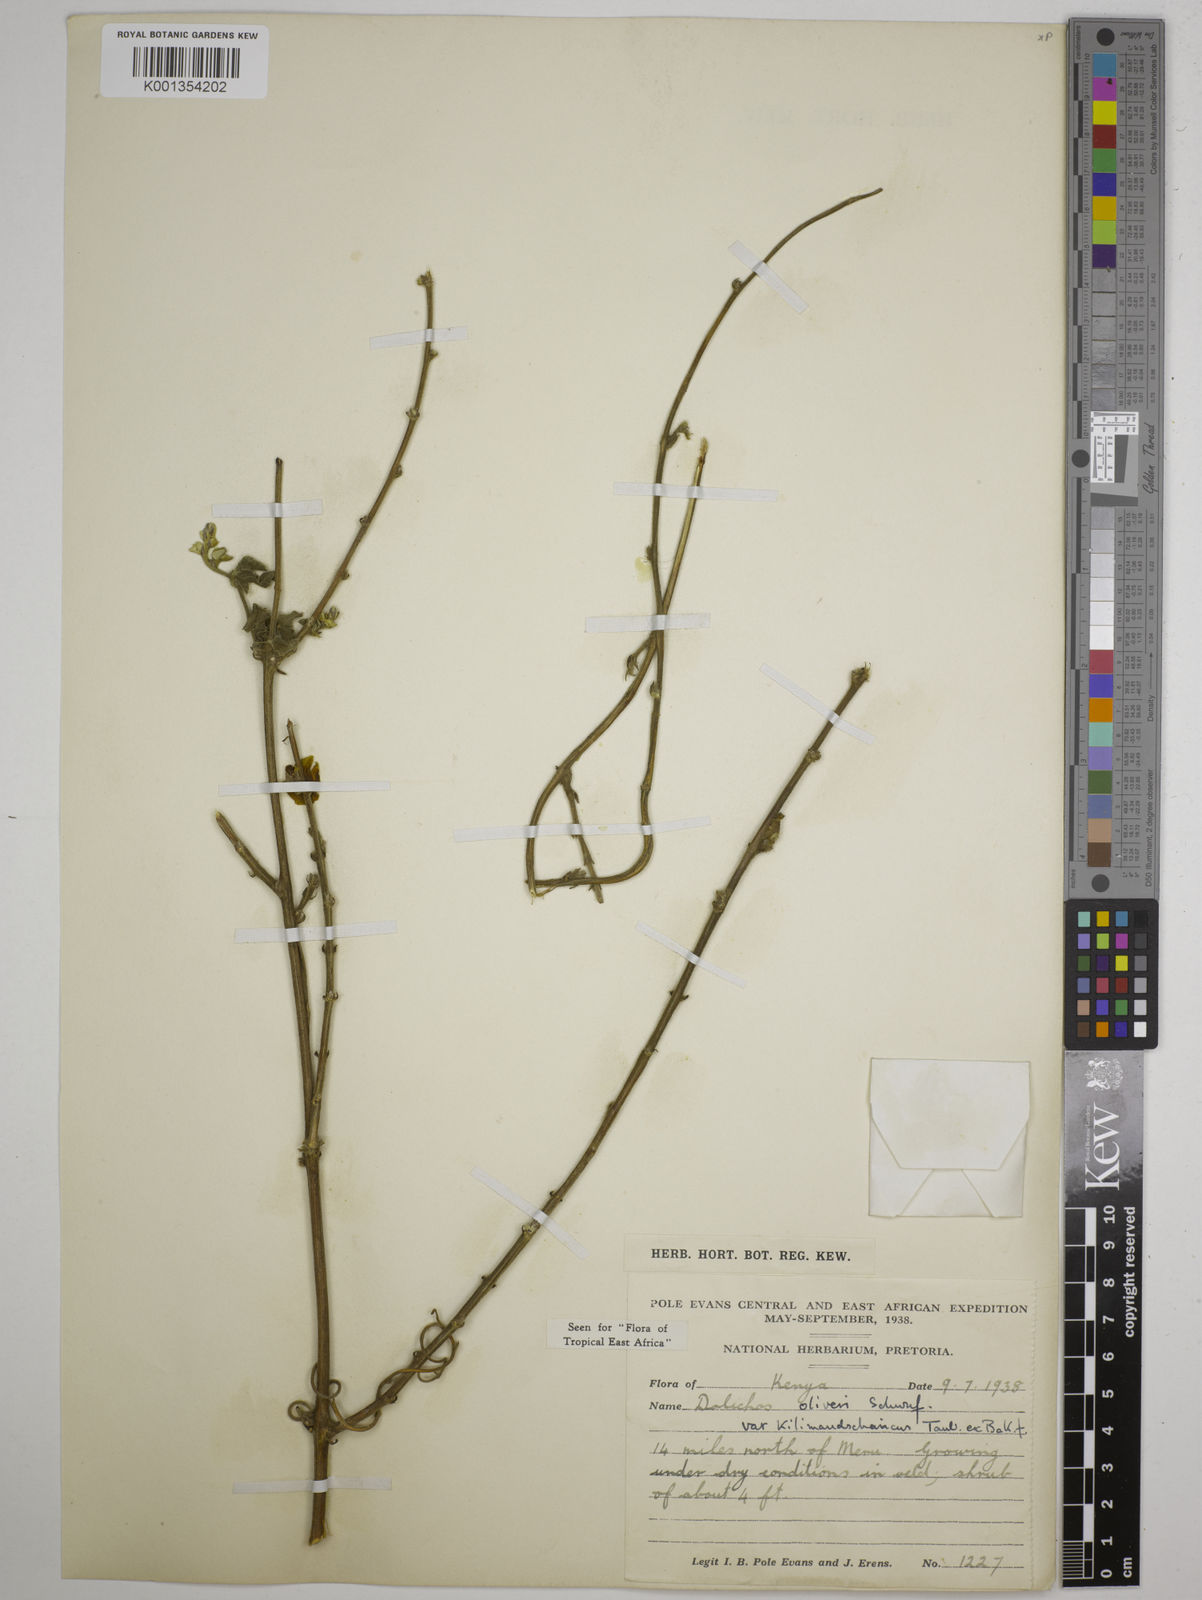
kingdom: Plantae
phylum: Tracheophyta
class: Magnoliopsida
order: Fabales
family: Fabaceae
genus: Dolichos
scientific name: Dolichos
